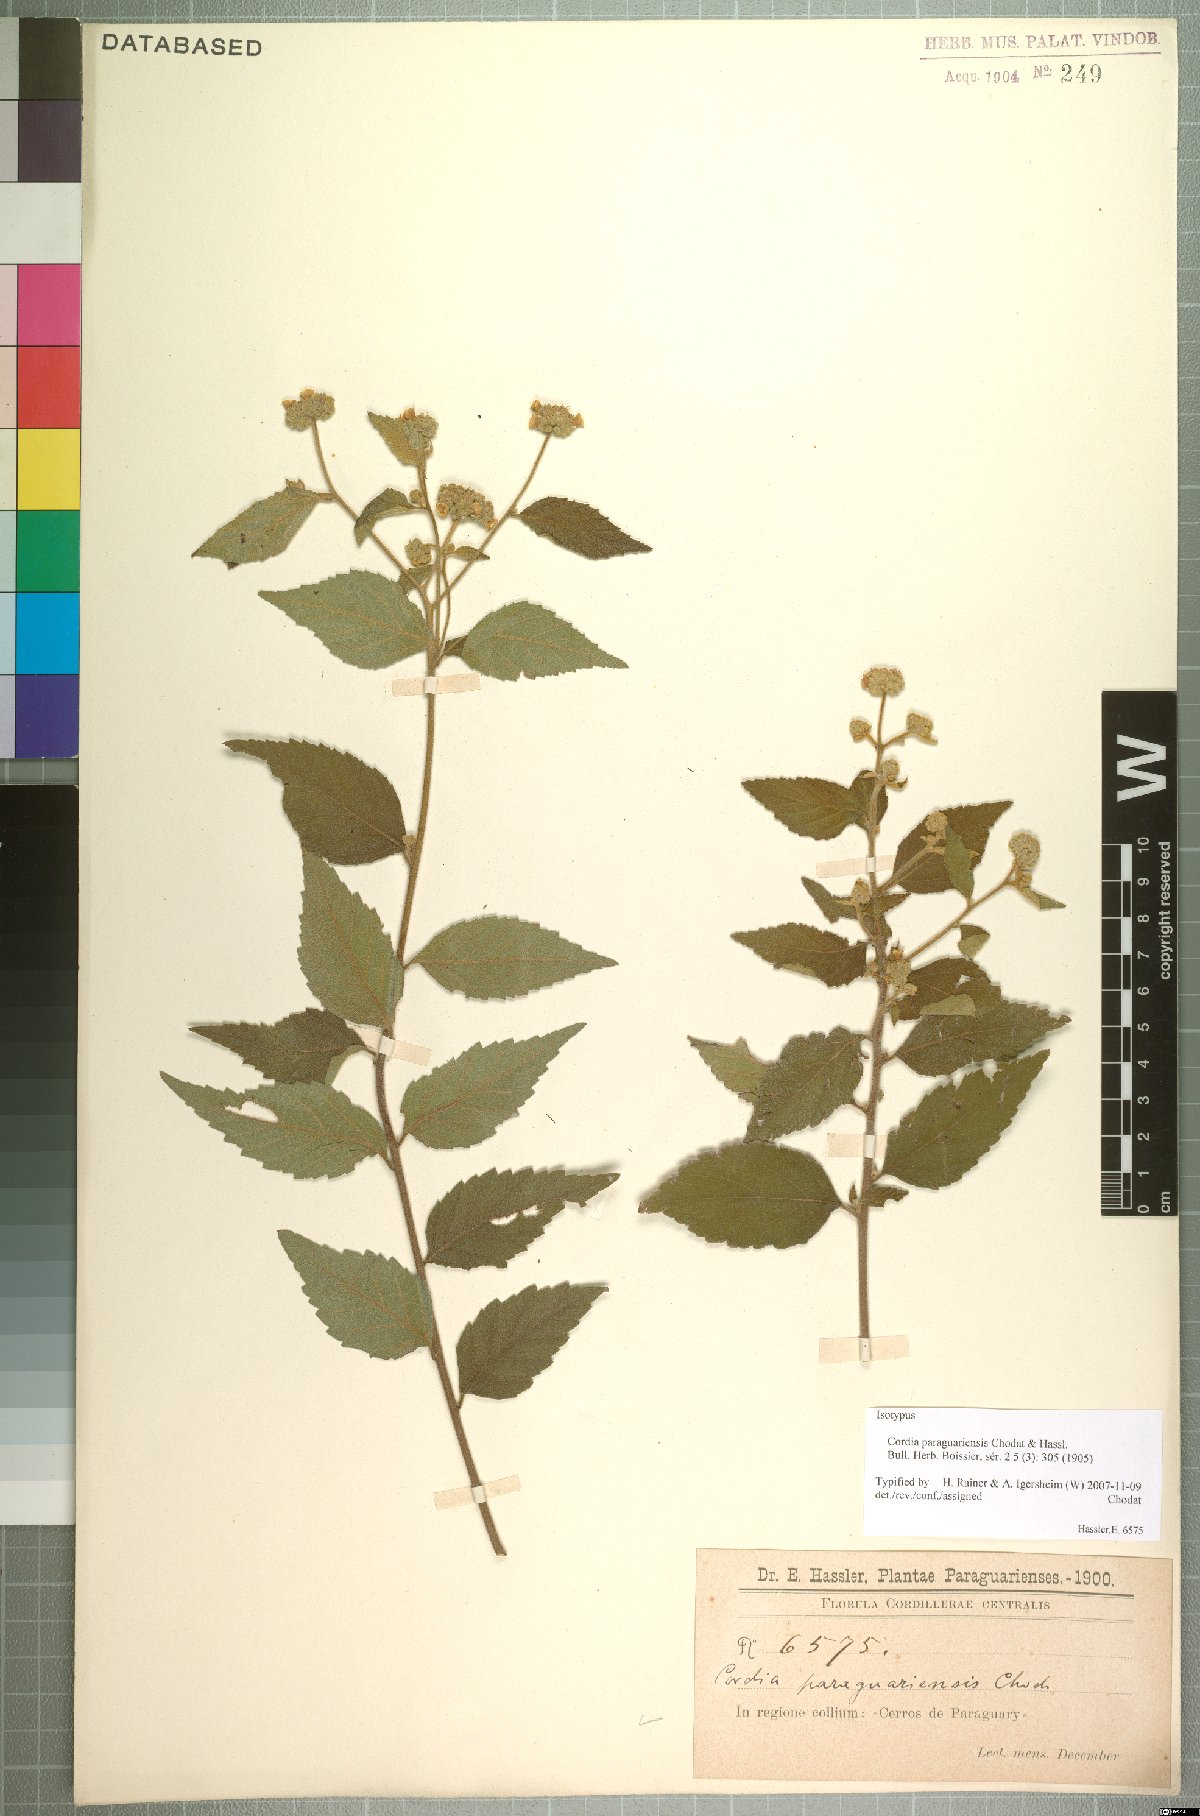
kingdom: Plantae
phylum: Tracheophyta
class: Magnoliopsida
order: Boraginales
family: Cordiaceae
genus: Varronia
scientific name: Varronia polycephala
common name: Black-sage
